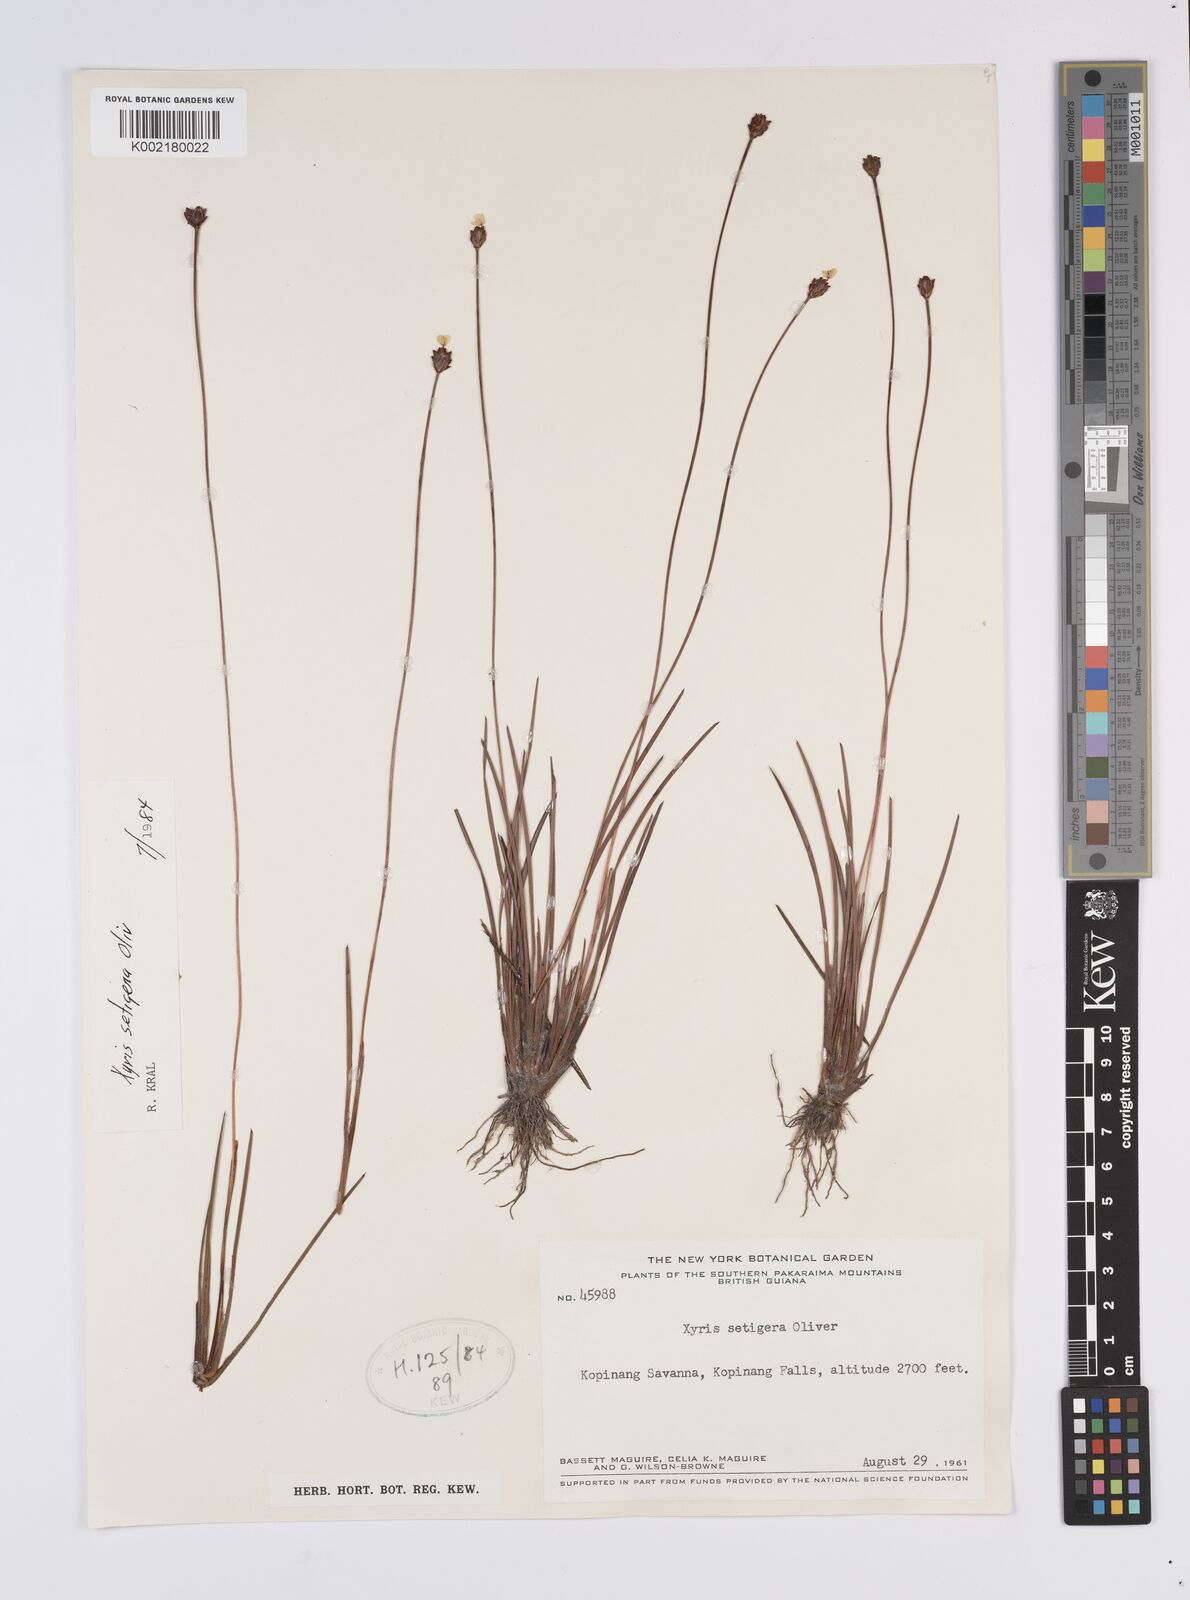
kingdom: Plantae
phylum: Tracheophyta
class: Liliopsida
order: Poales
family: Xyridaceae
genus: Xyris
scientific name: Xyris setigera
